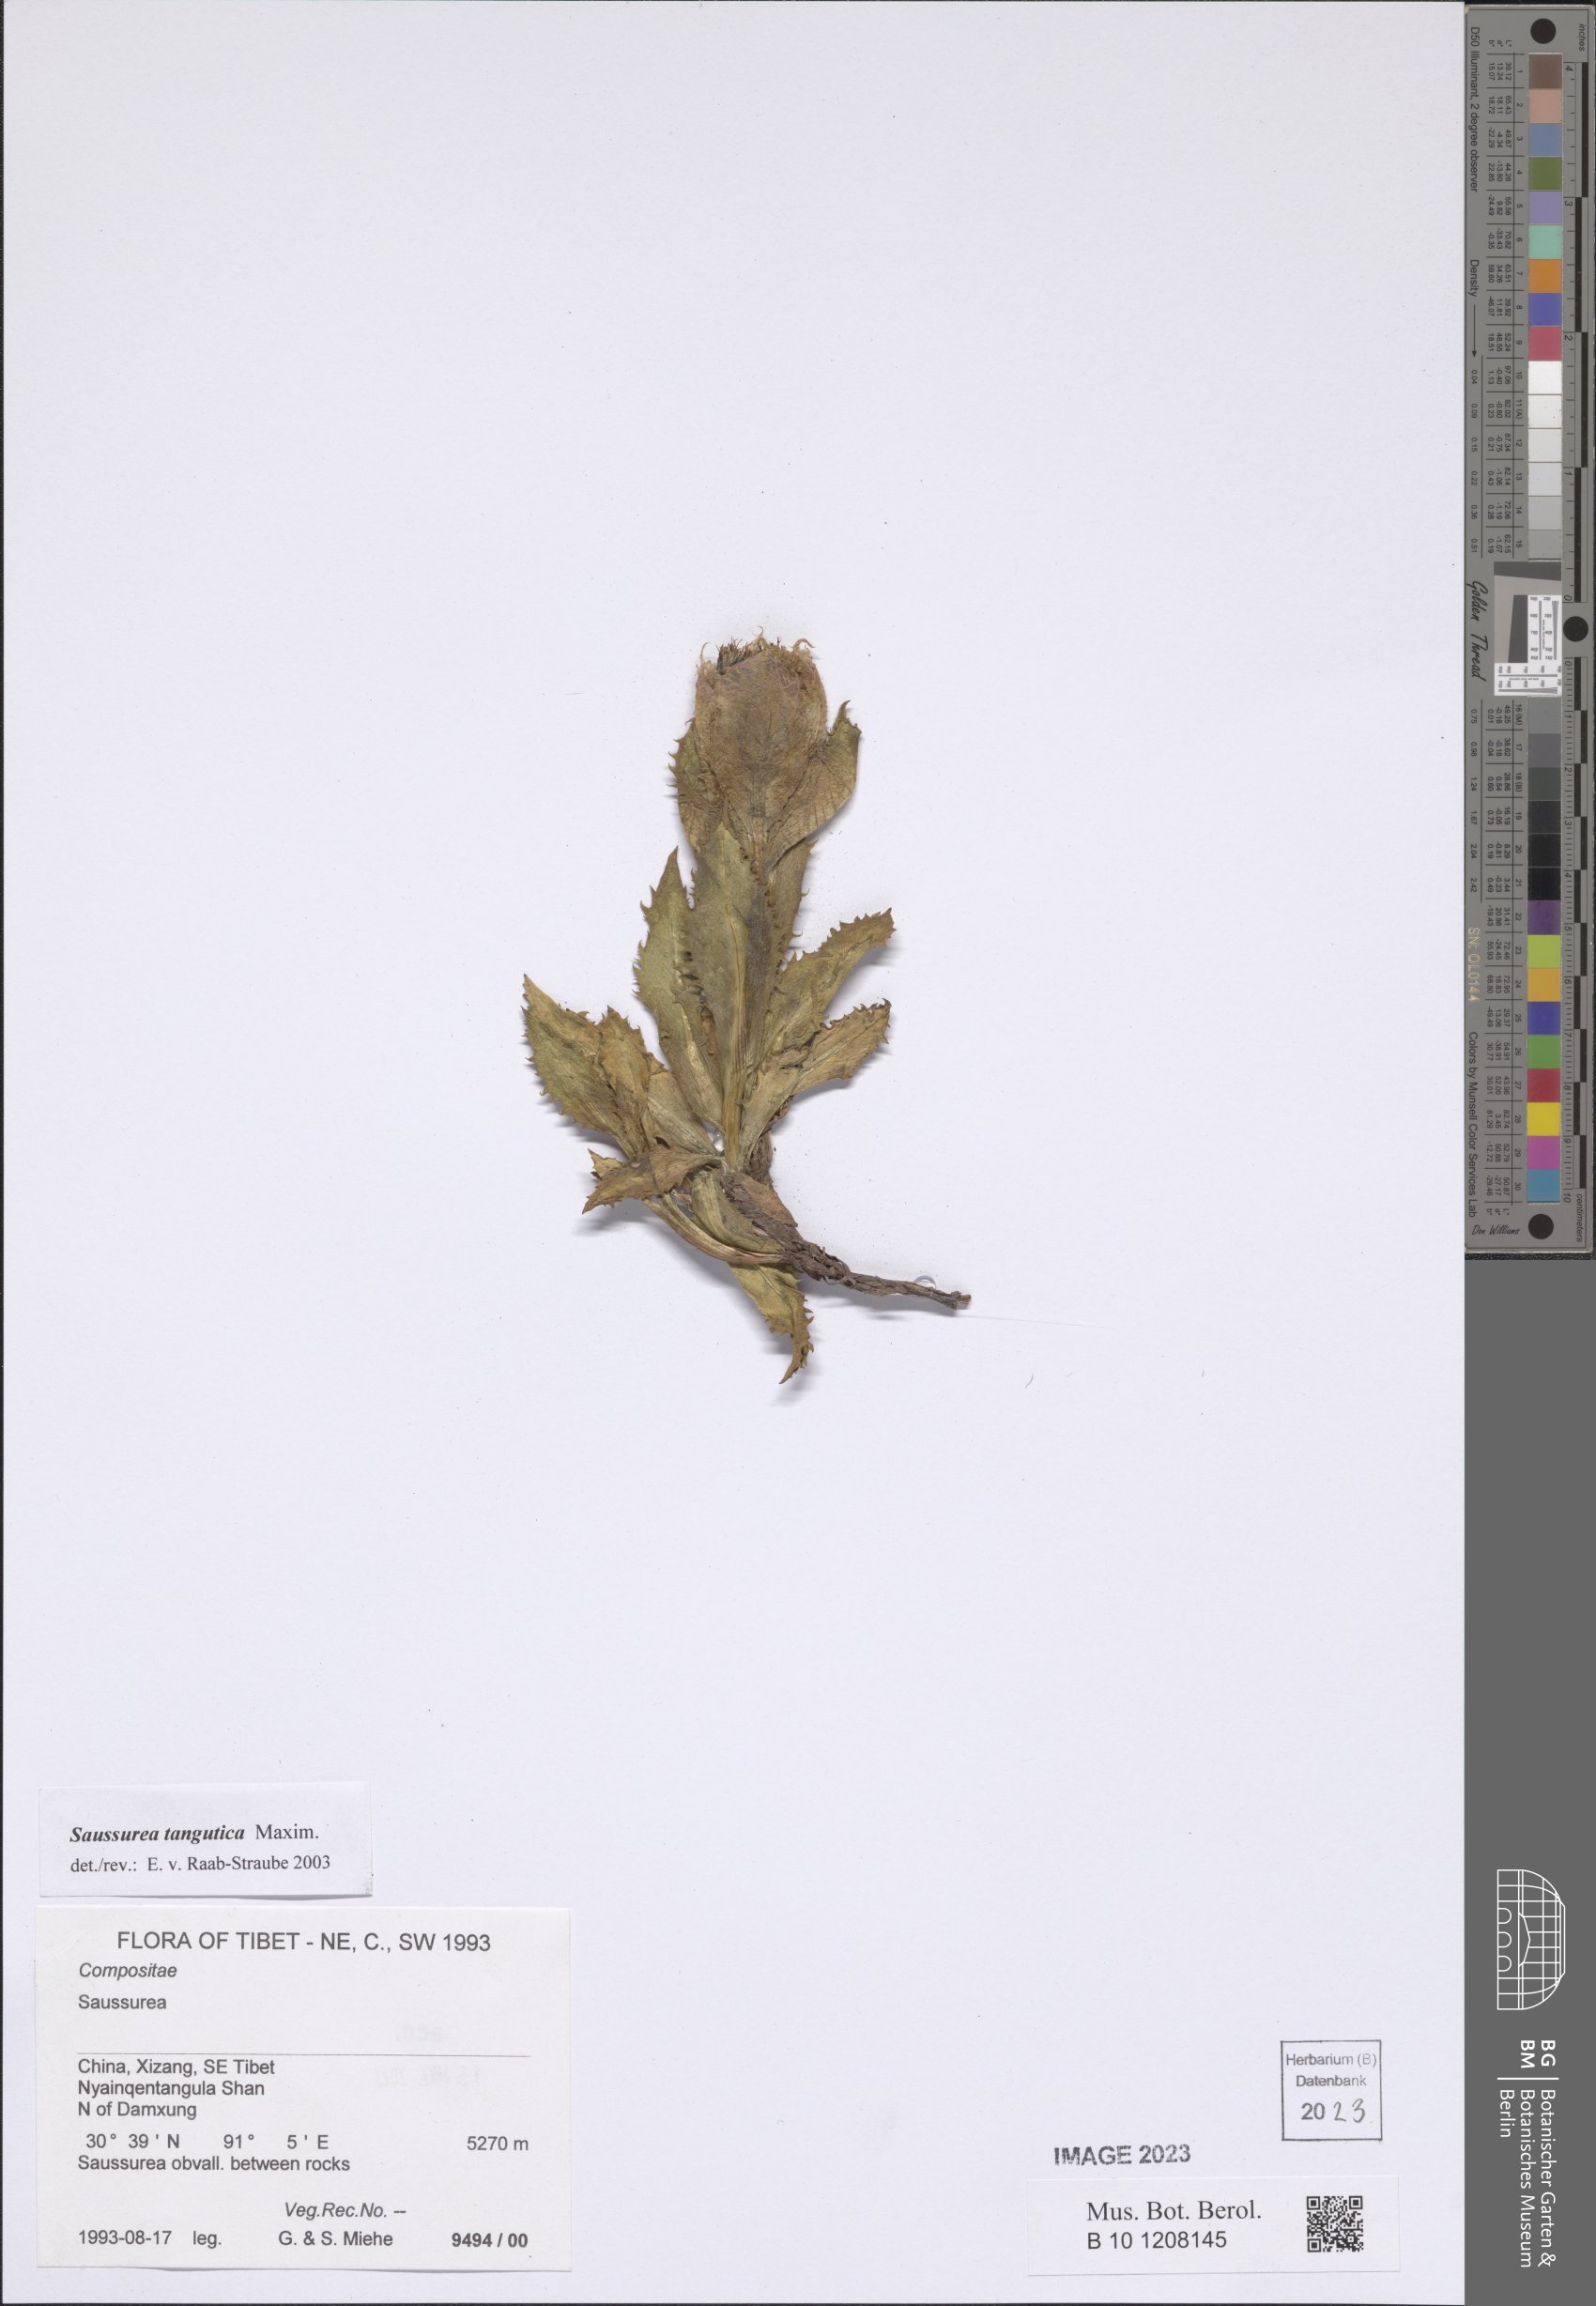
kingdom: Plantae
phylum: Tracheophyta
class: Magnoliopsida
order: Asterales
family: Asteraceae
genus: Saussurea
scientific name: Saussurea tangutica
